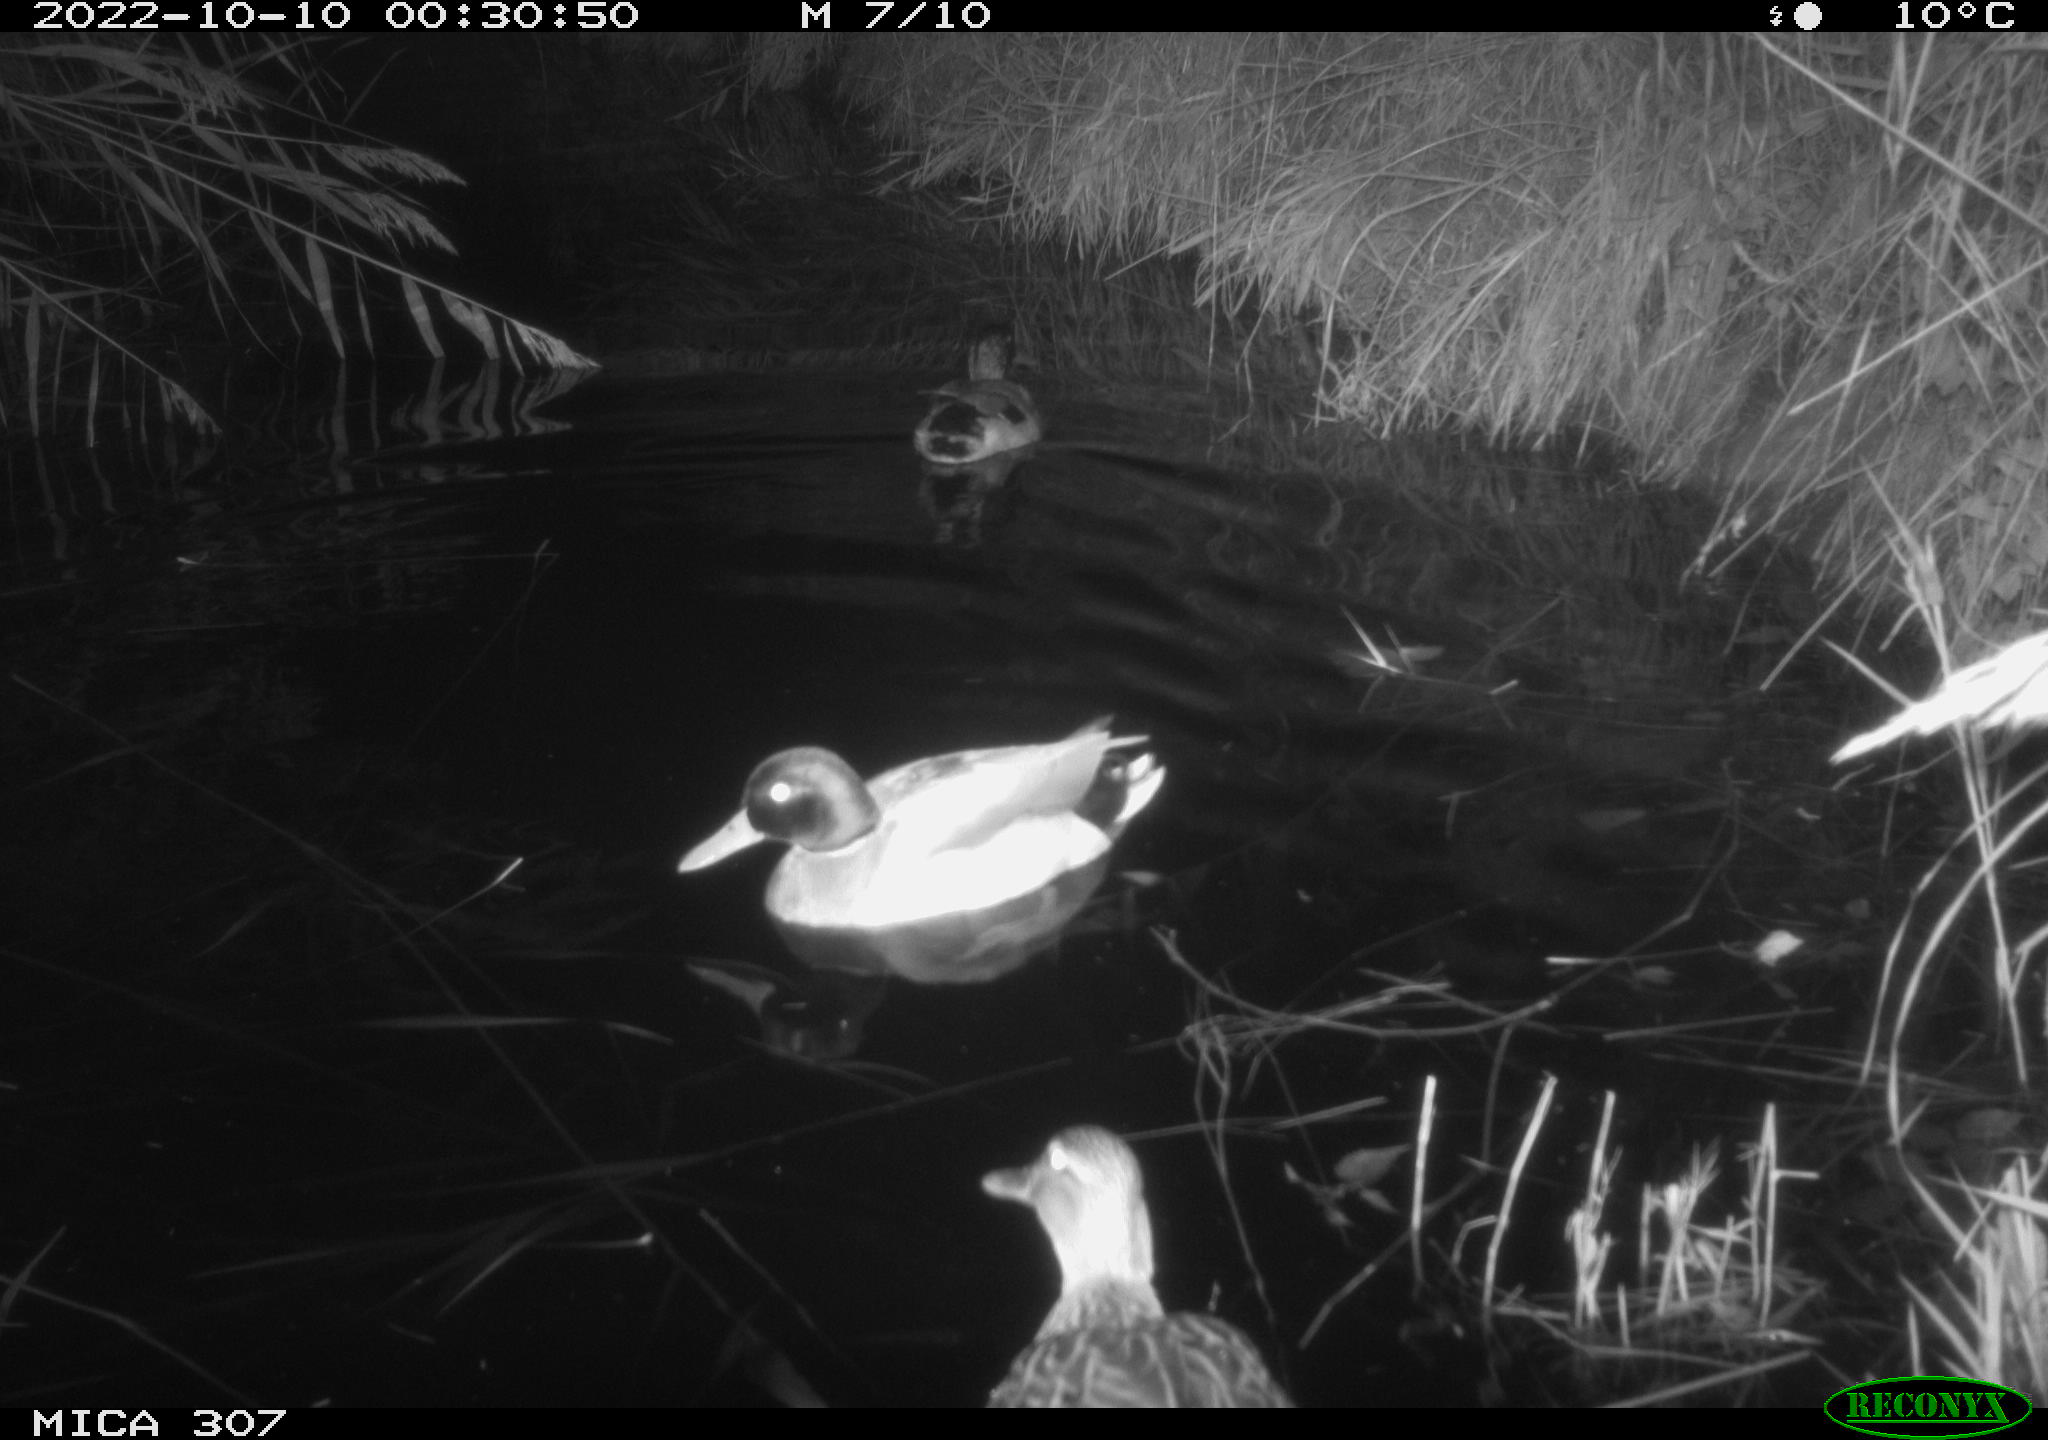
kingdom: Animalia
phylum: Chordata
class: Aves
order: Anseriformes
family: Anatidae
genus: Anas
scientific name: Anas
